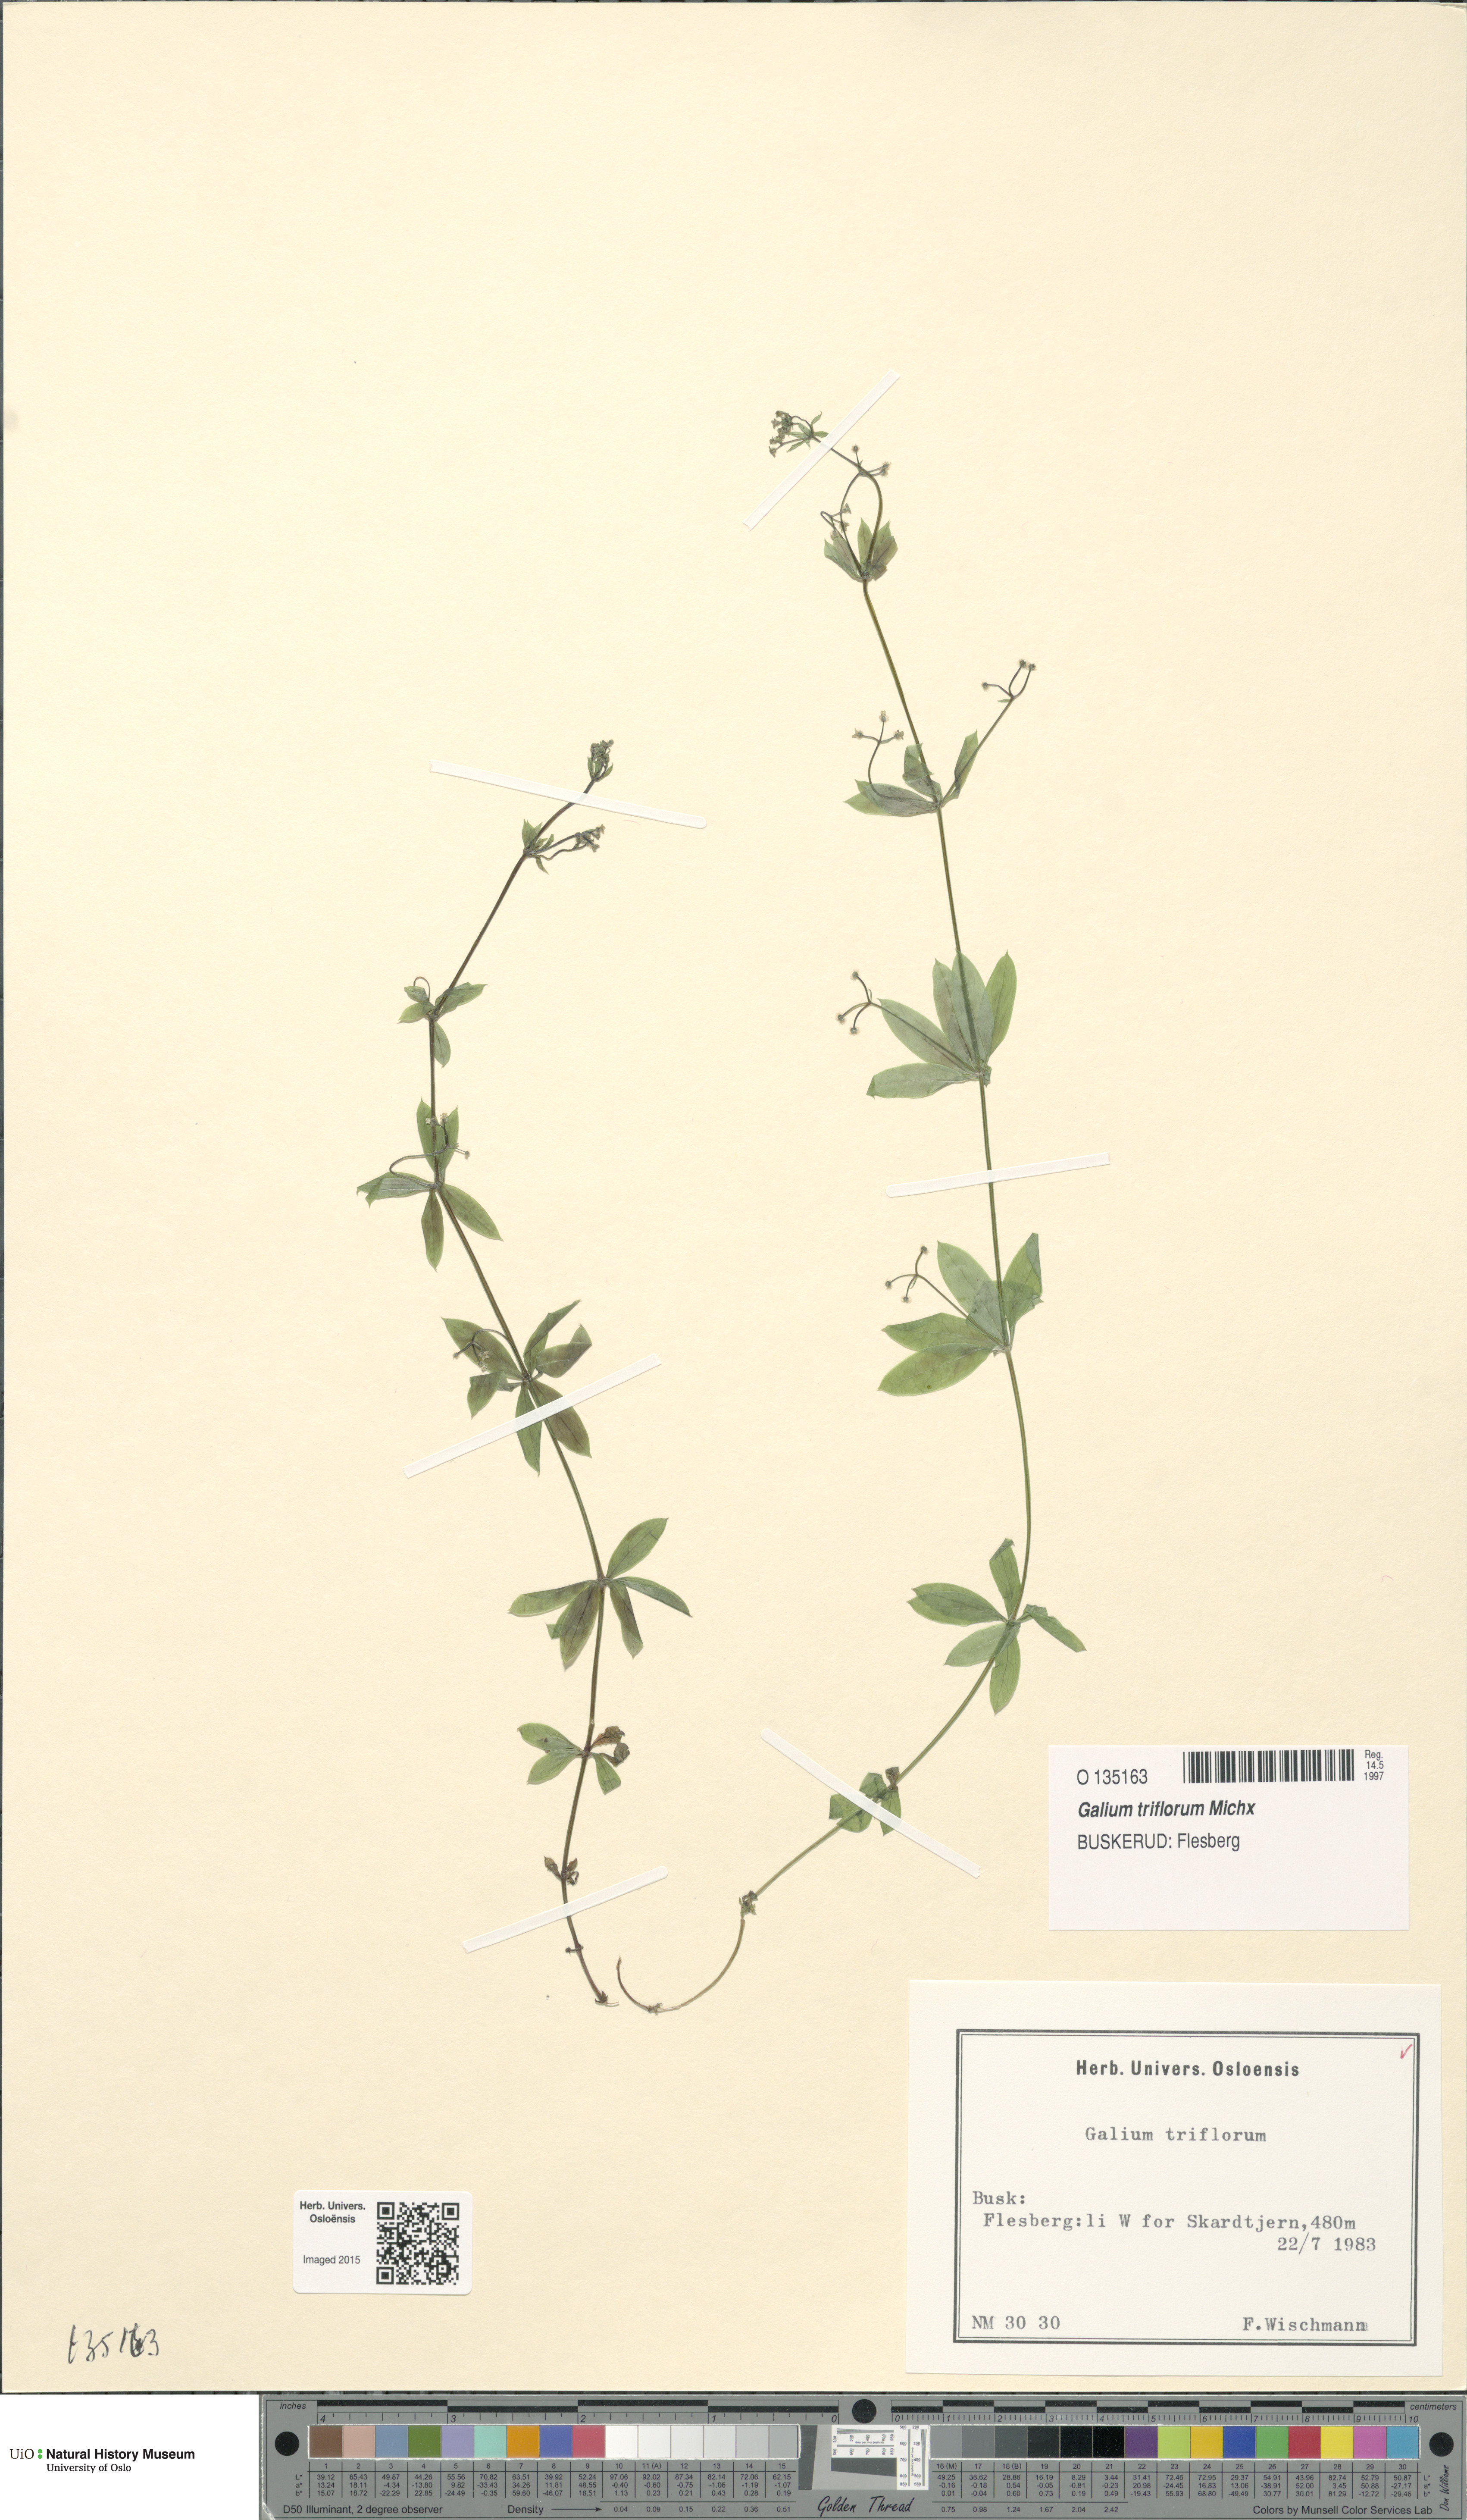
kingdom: Plantae
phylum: Tracheophyta
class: Magnoliopsida
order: Gentianales
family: Rubiaceae
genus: Galium
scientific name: Galium triflorum
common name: Fragrant bedstraw
